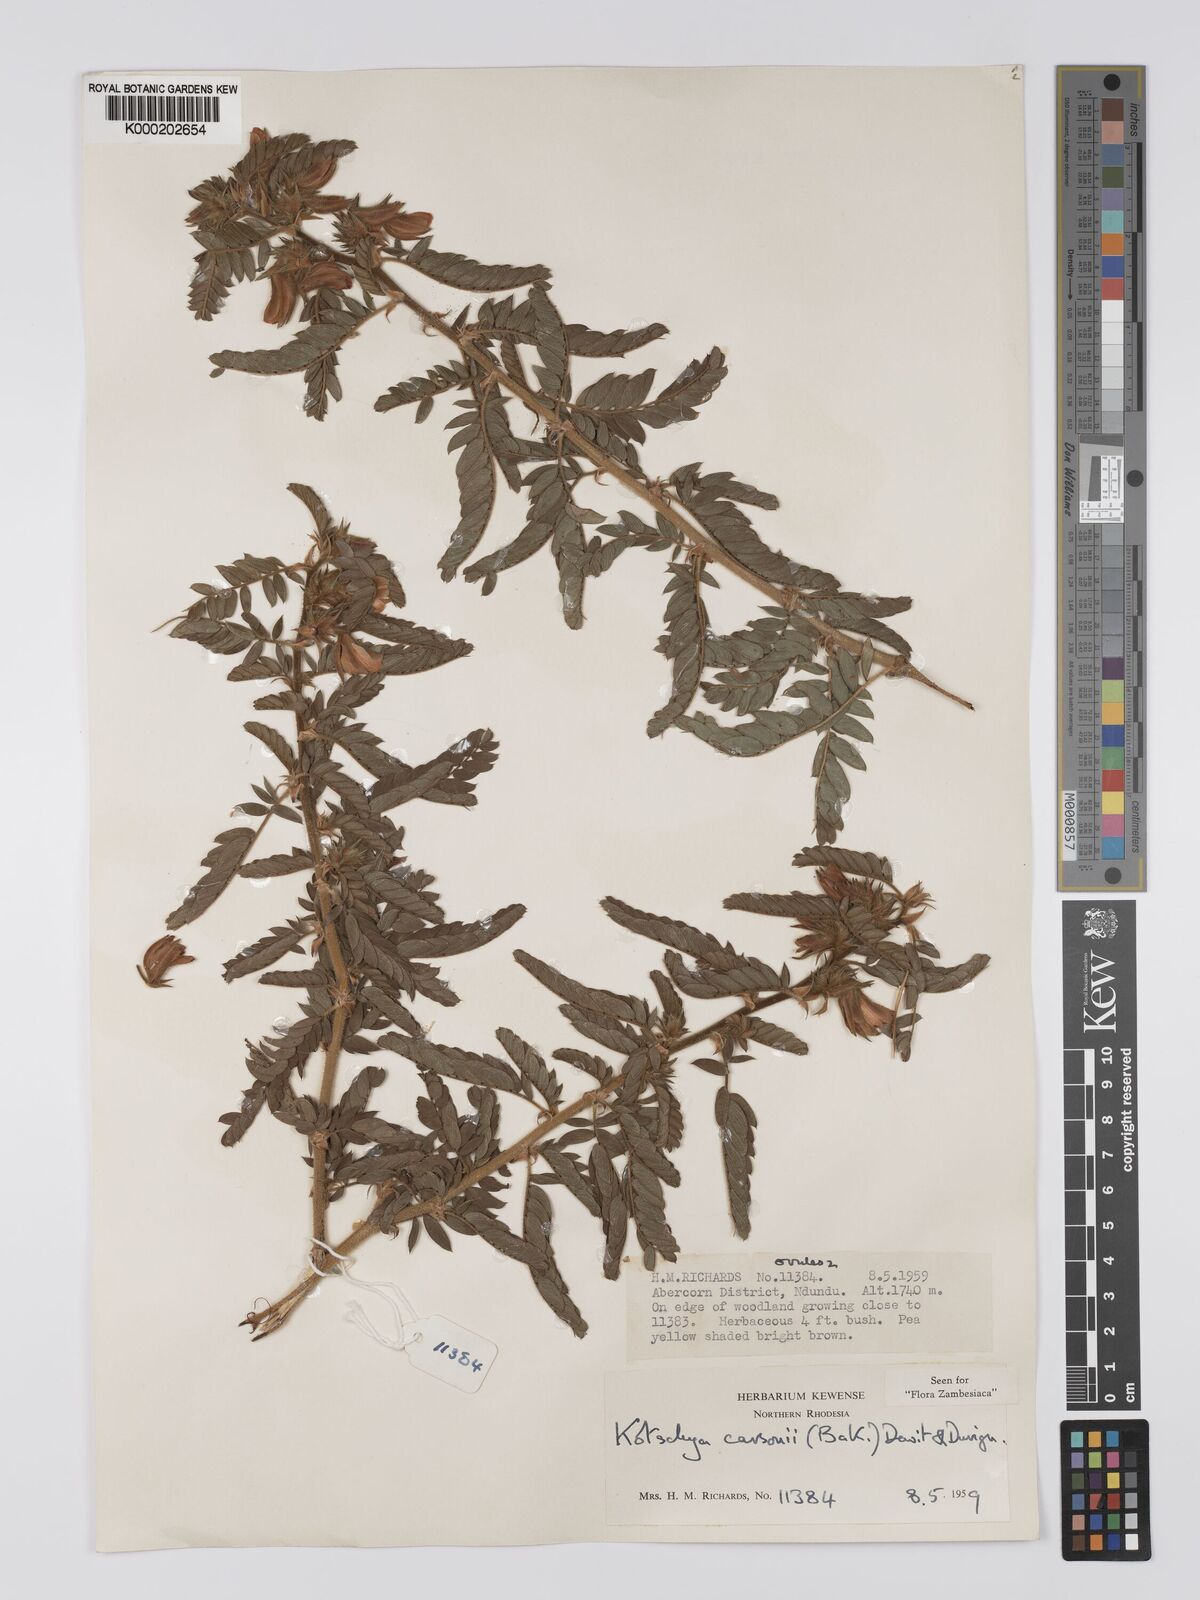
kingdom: Plantae
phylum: Tracheophyta
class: Magnoliopsida
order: Fabales
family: Fabaceae
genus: Kotschya
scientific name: Kotschya carsonii
